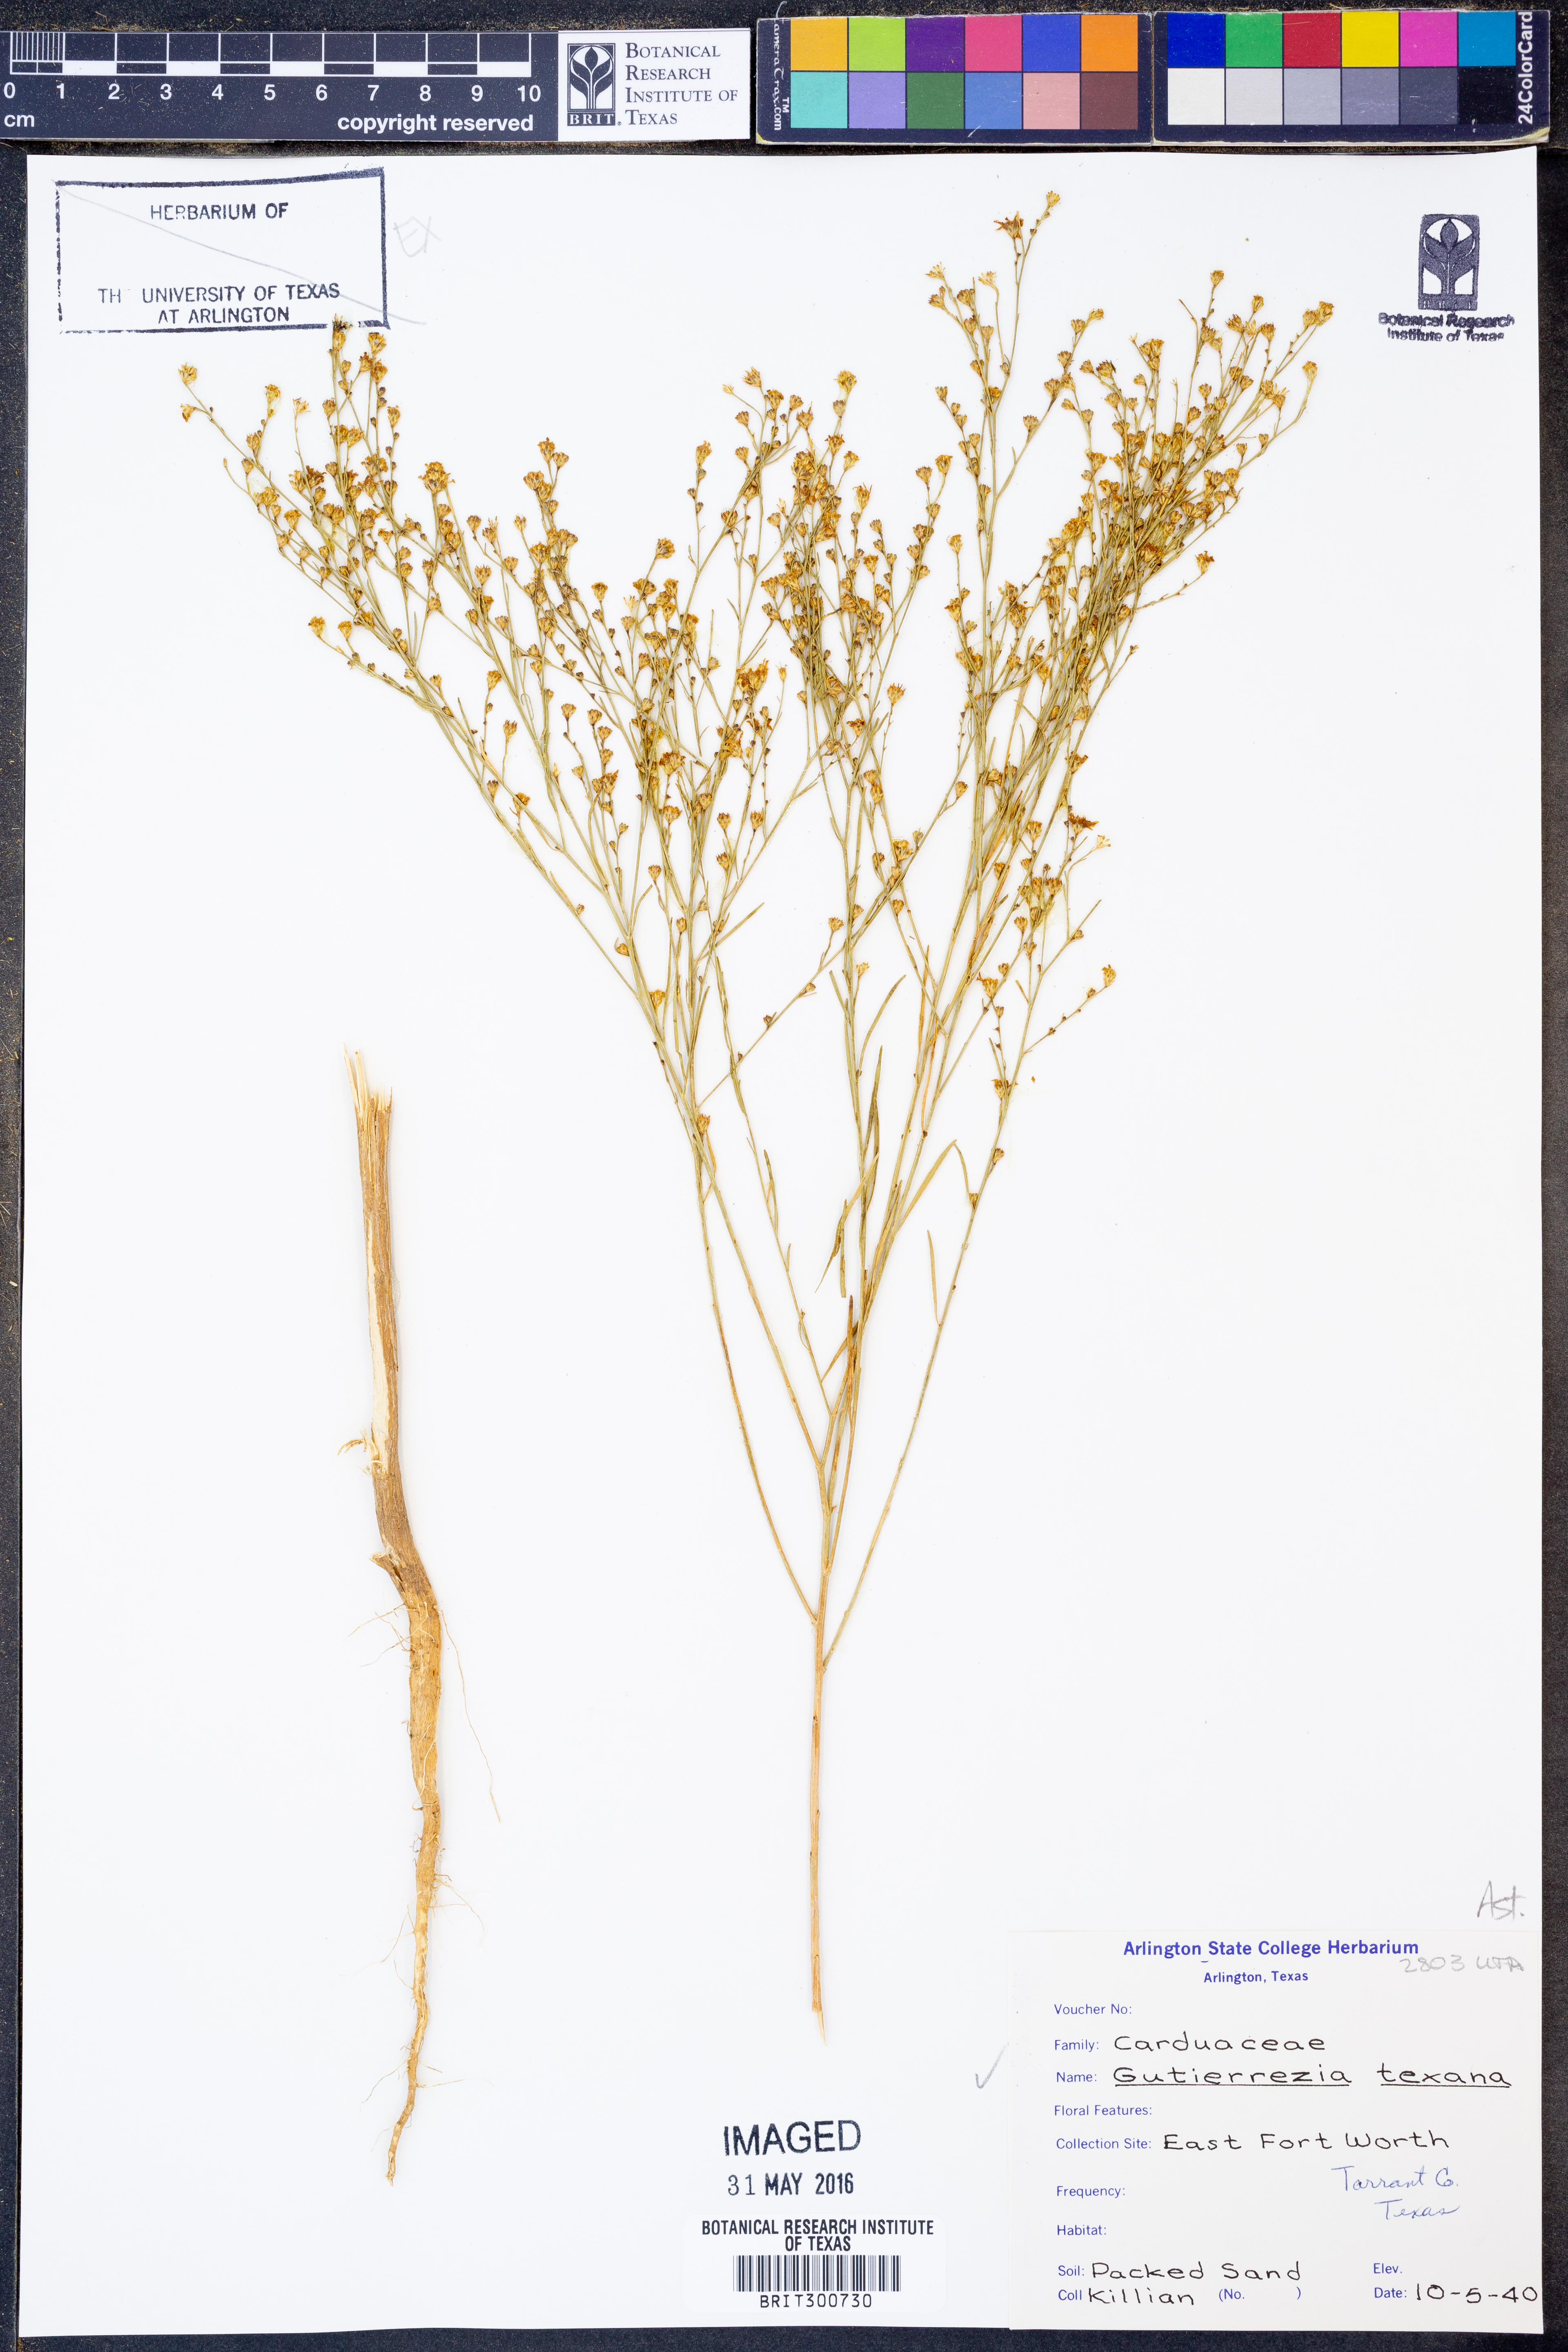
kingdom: Plantae
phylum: Tracheophyta
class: Magnoliopsida
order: Asterales
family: Asteraceae
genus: Gutierrezia
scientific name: Gutierrezia texana
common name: Texas snakeweed
